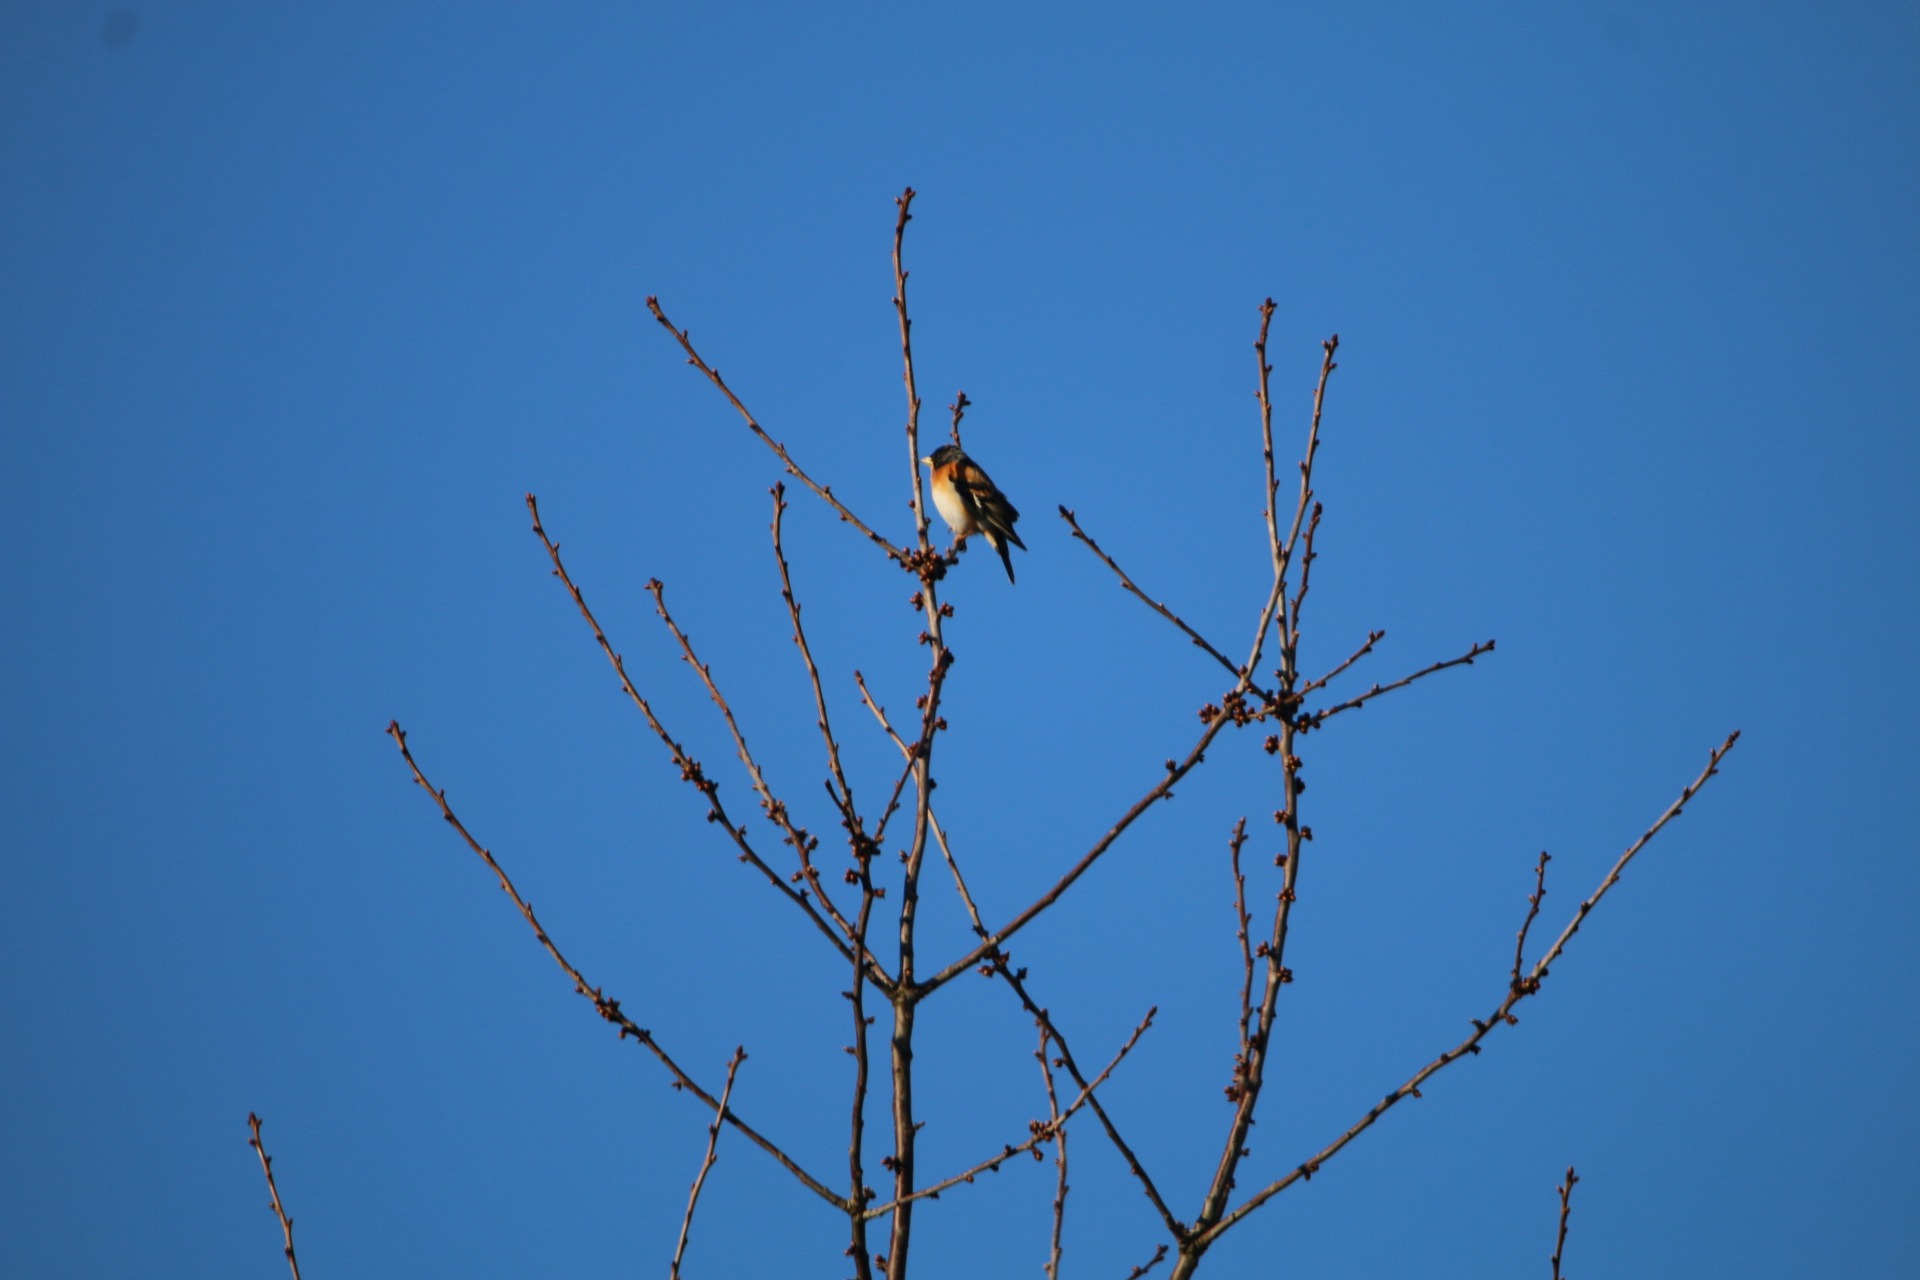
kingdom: Animalia
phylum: Chordata
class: Aves
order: Passeriformes
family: Fringillidae
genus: Fringilla
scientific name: Fringilla montifringilla
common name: Kvækerfinke
